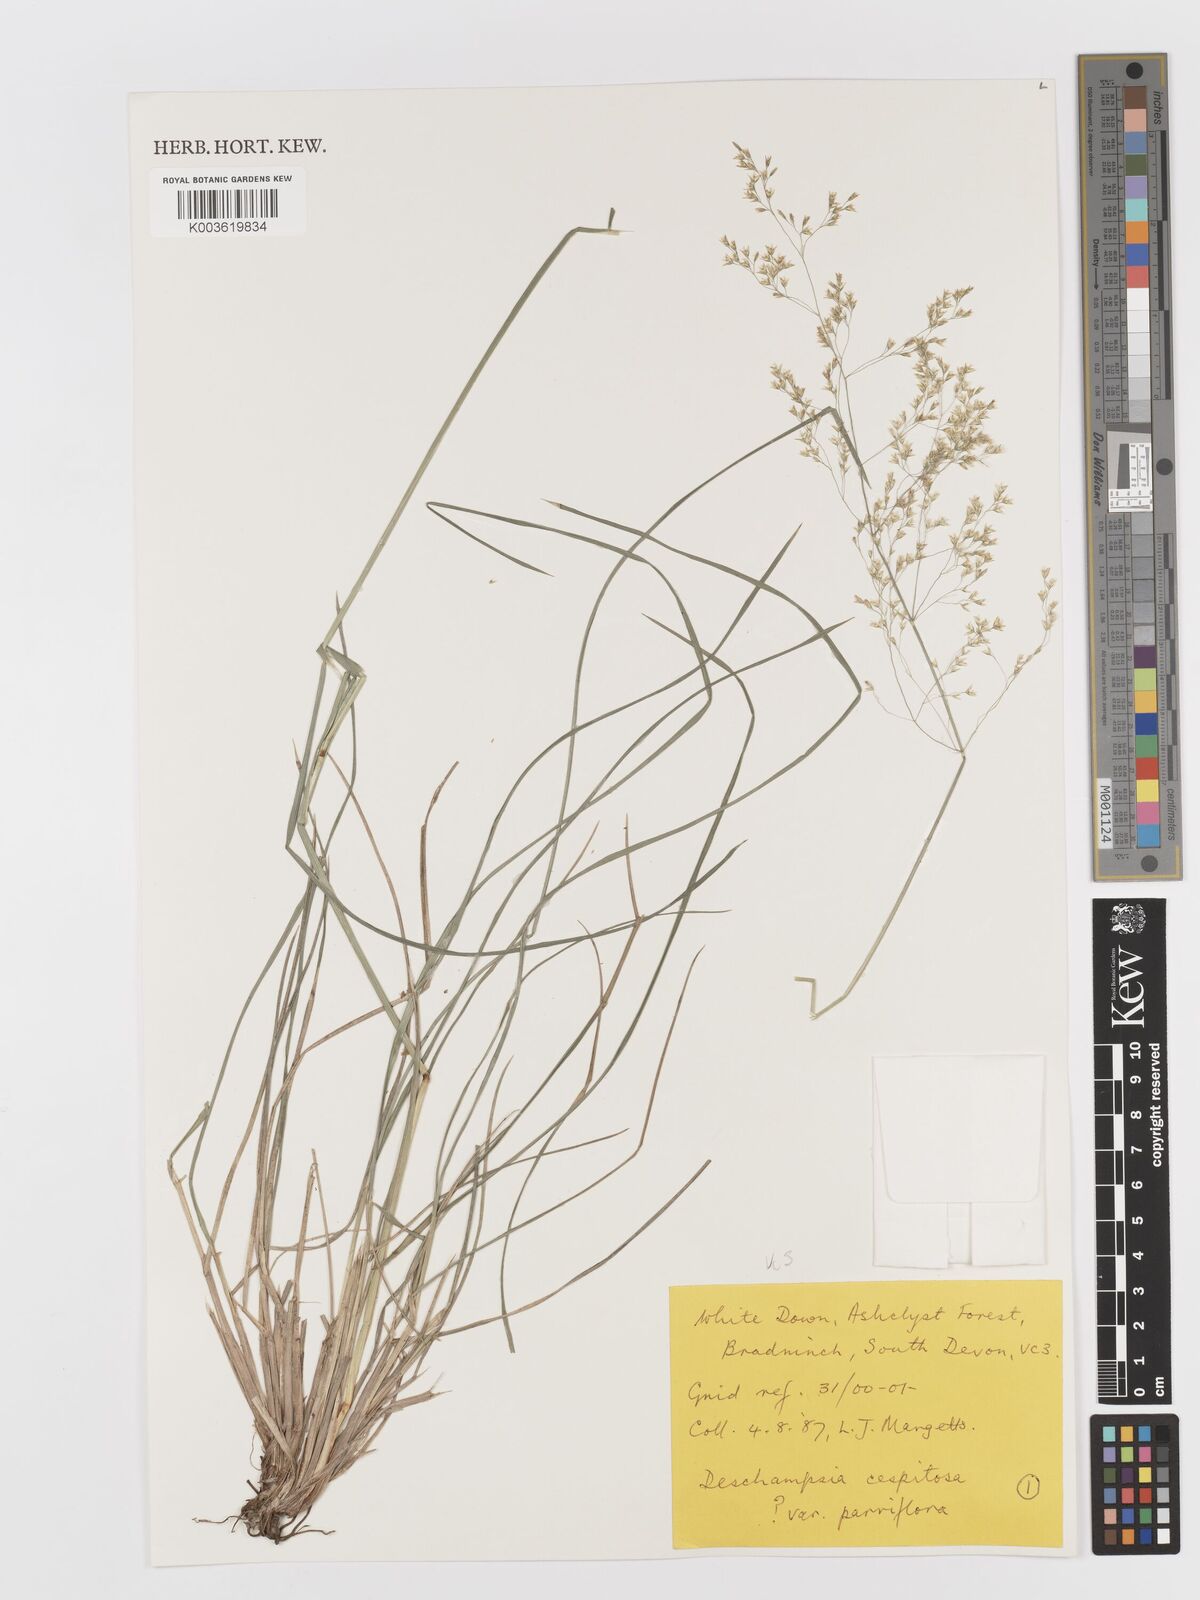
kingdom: Plantae
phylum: Tracheophyta
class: Liliopsida
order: Poales
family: Poaceae
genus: Deschampsia
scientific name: Deschampsia cespitosa
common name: Tufted hair-grass
